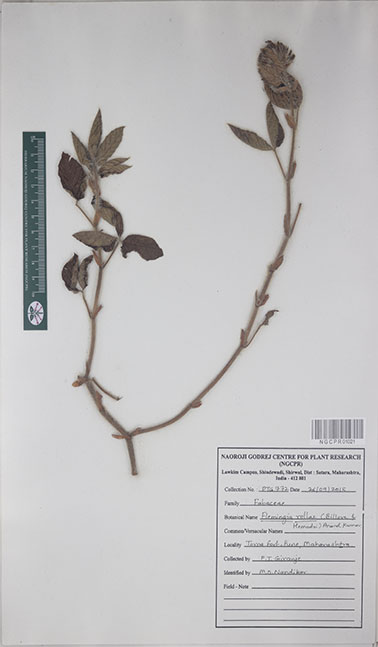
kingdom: Plantae
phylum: Tracheophyta
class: Magnoliopsida
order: Fabales
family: Fabaceae
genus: Flemingia
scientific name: Flemingia rollae
